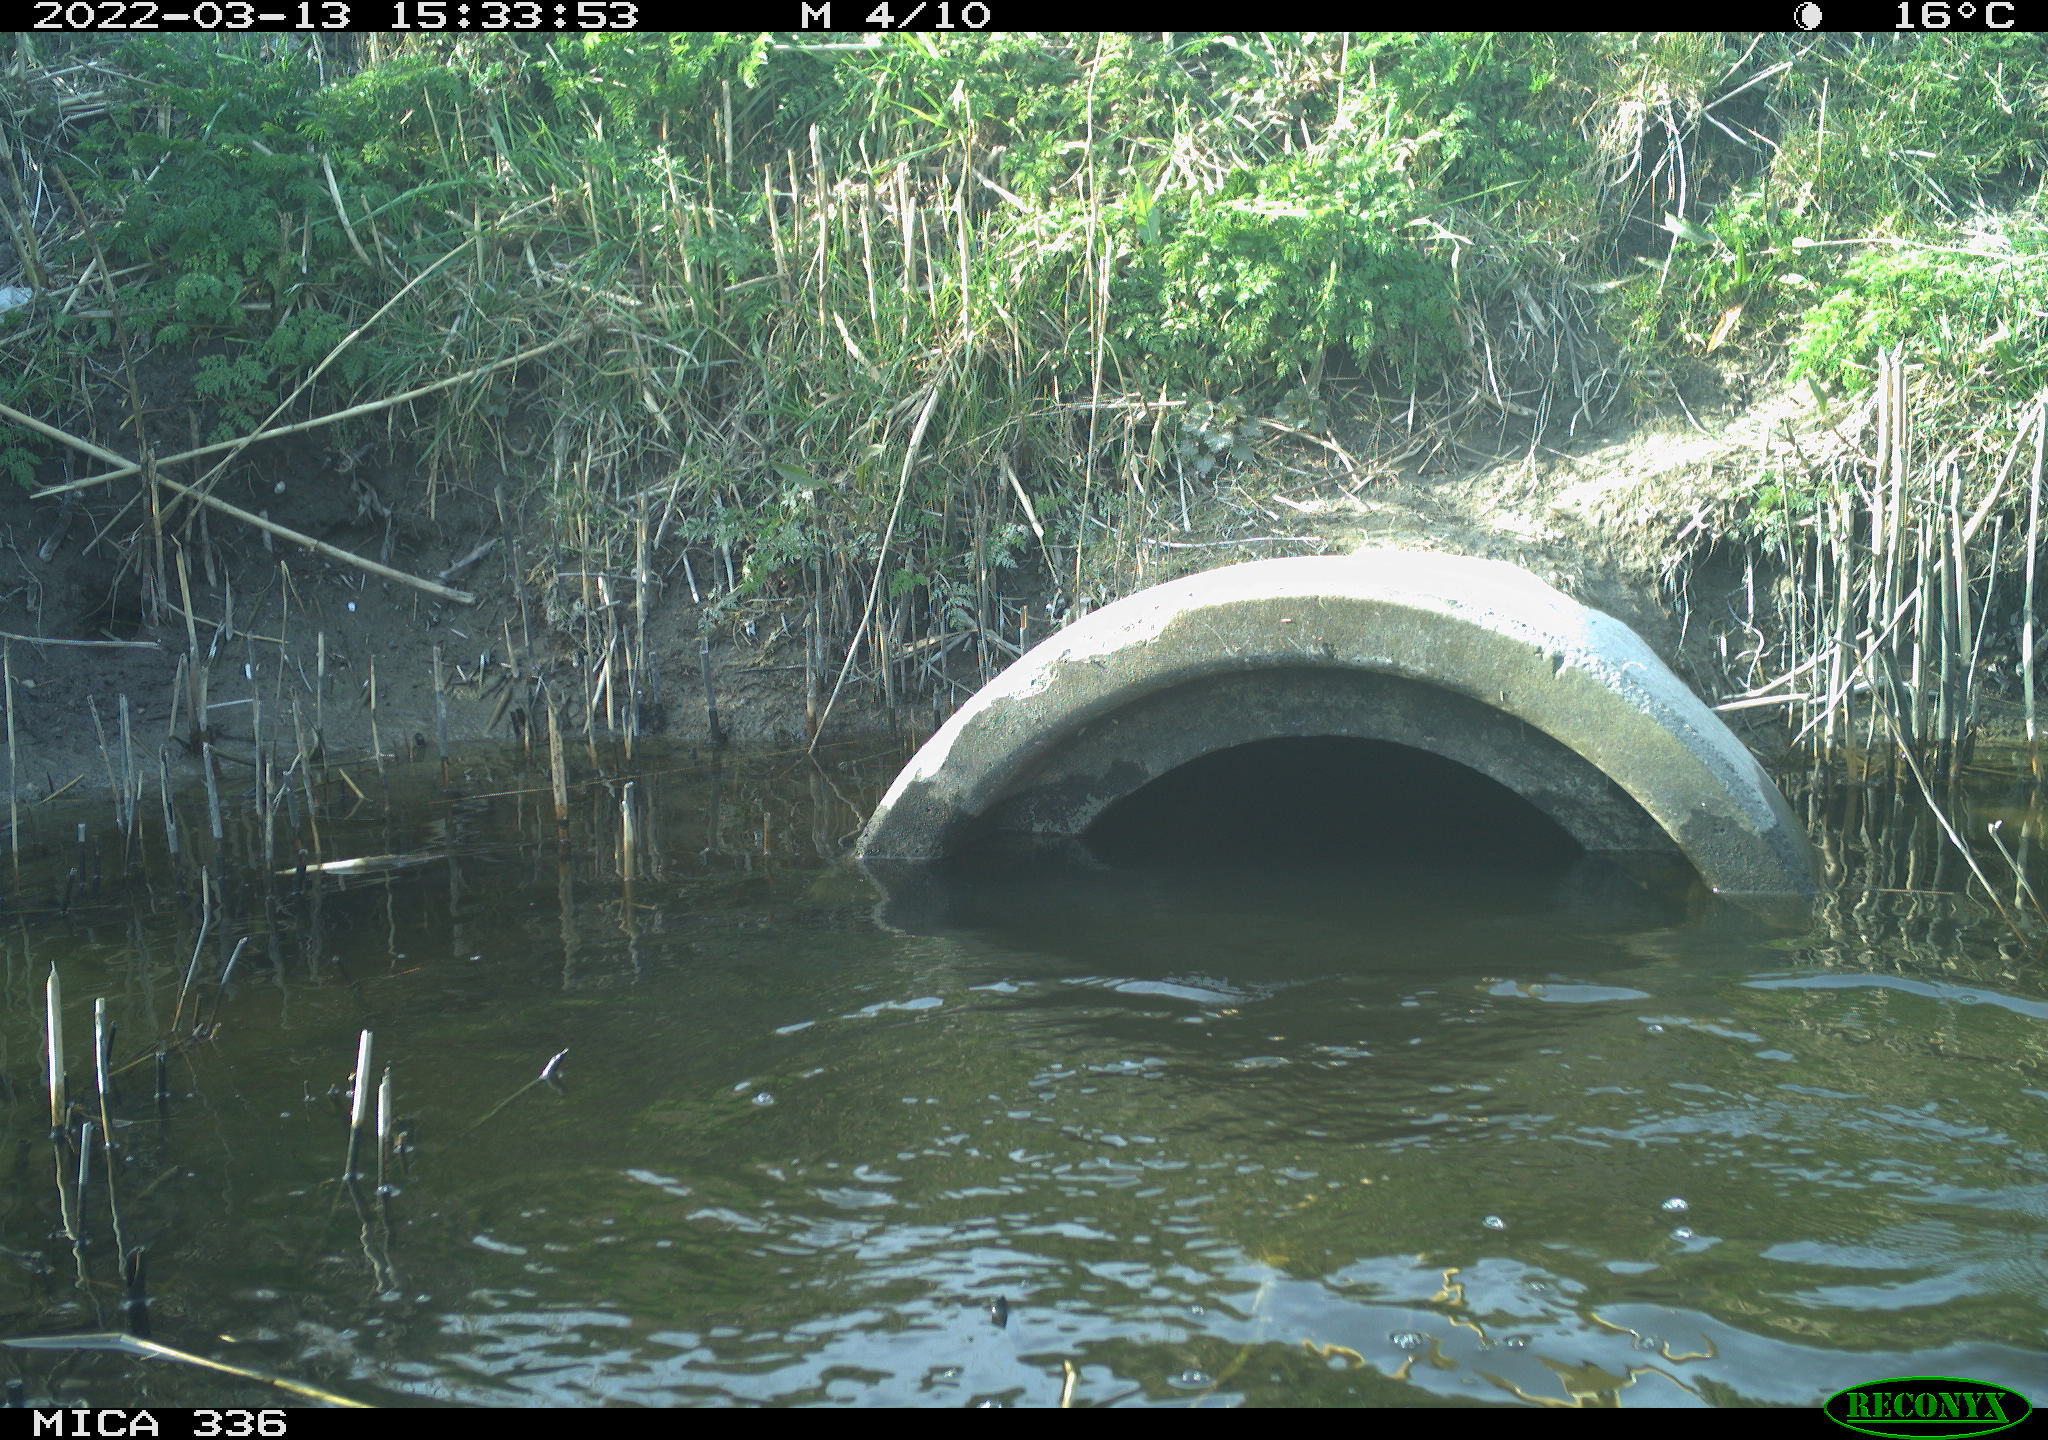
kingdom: Animalia
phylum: Chordata
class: Aves
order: Suliformes
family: Phalacrocoracidae
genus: Phalacrocorax
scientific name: Phalacrocorax carbo
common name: Great cormorant
